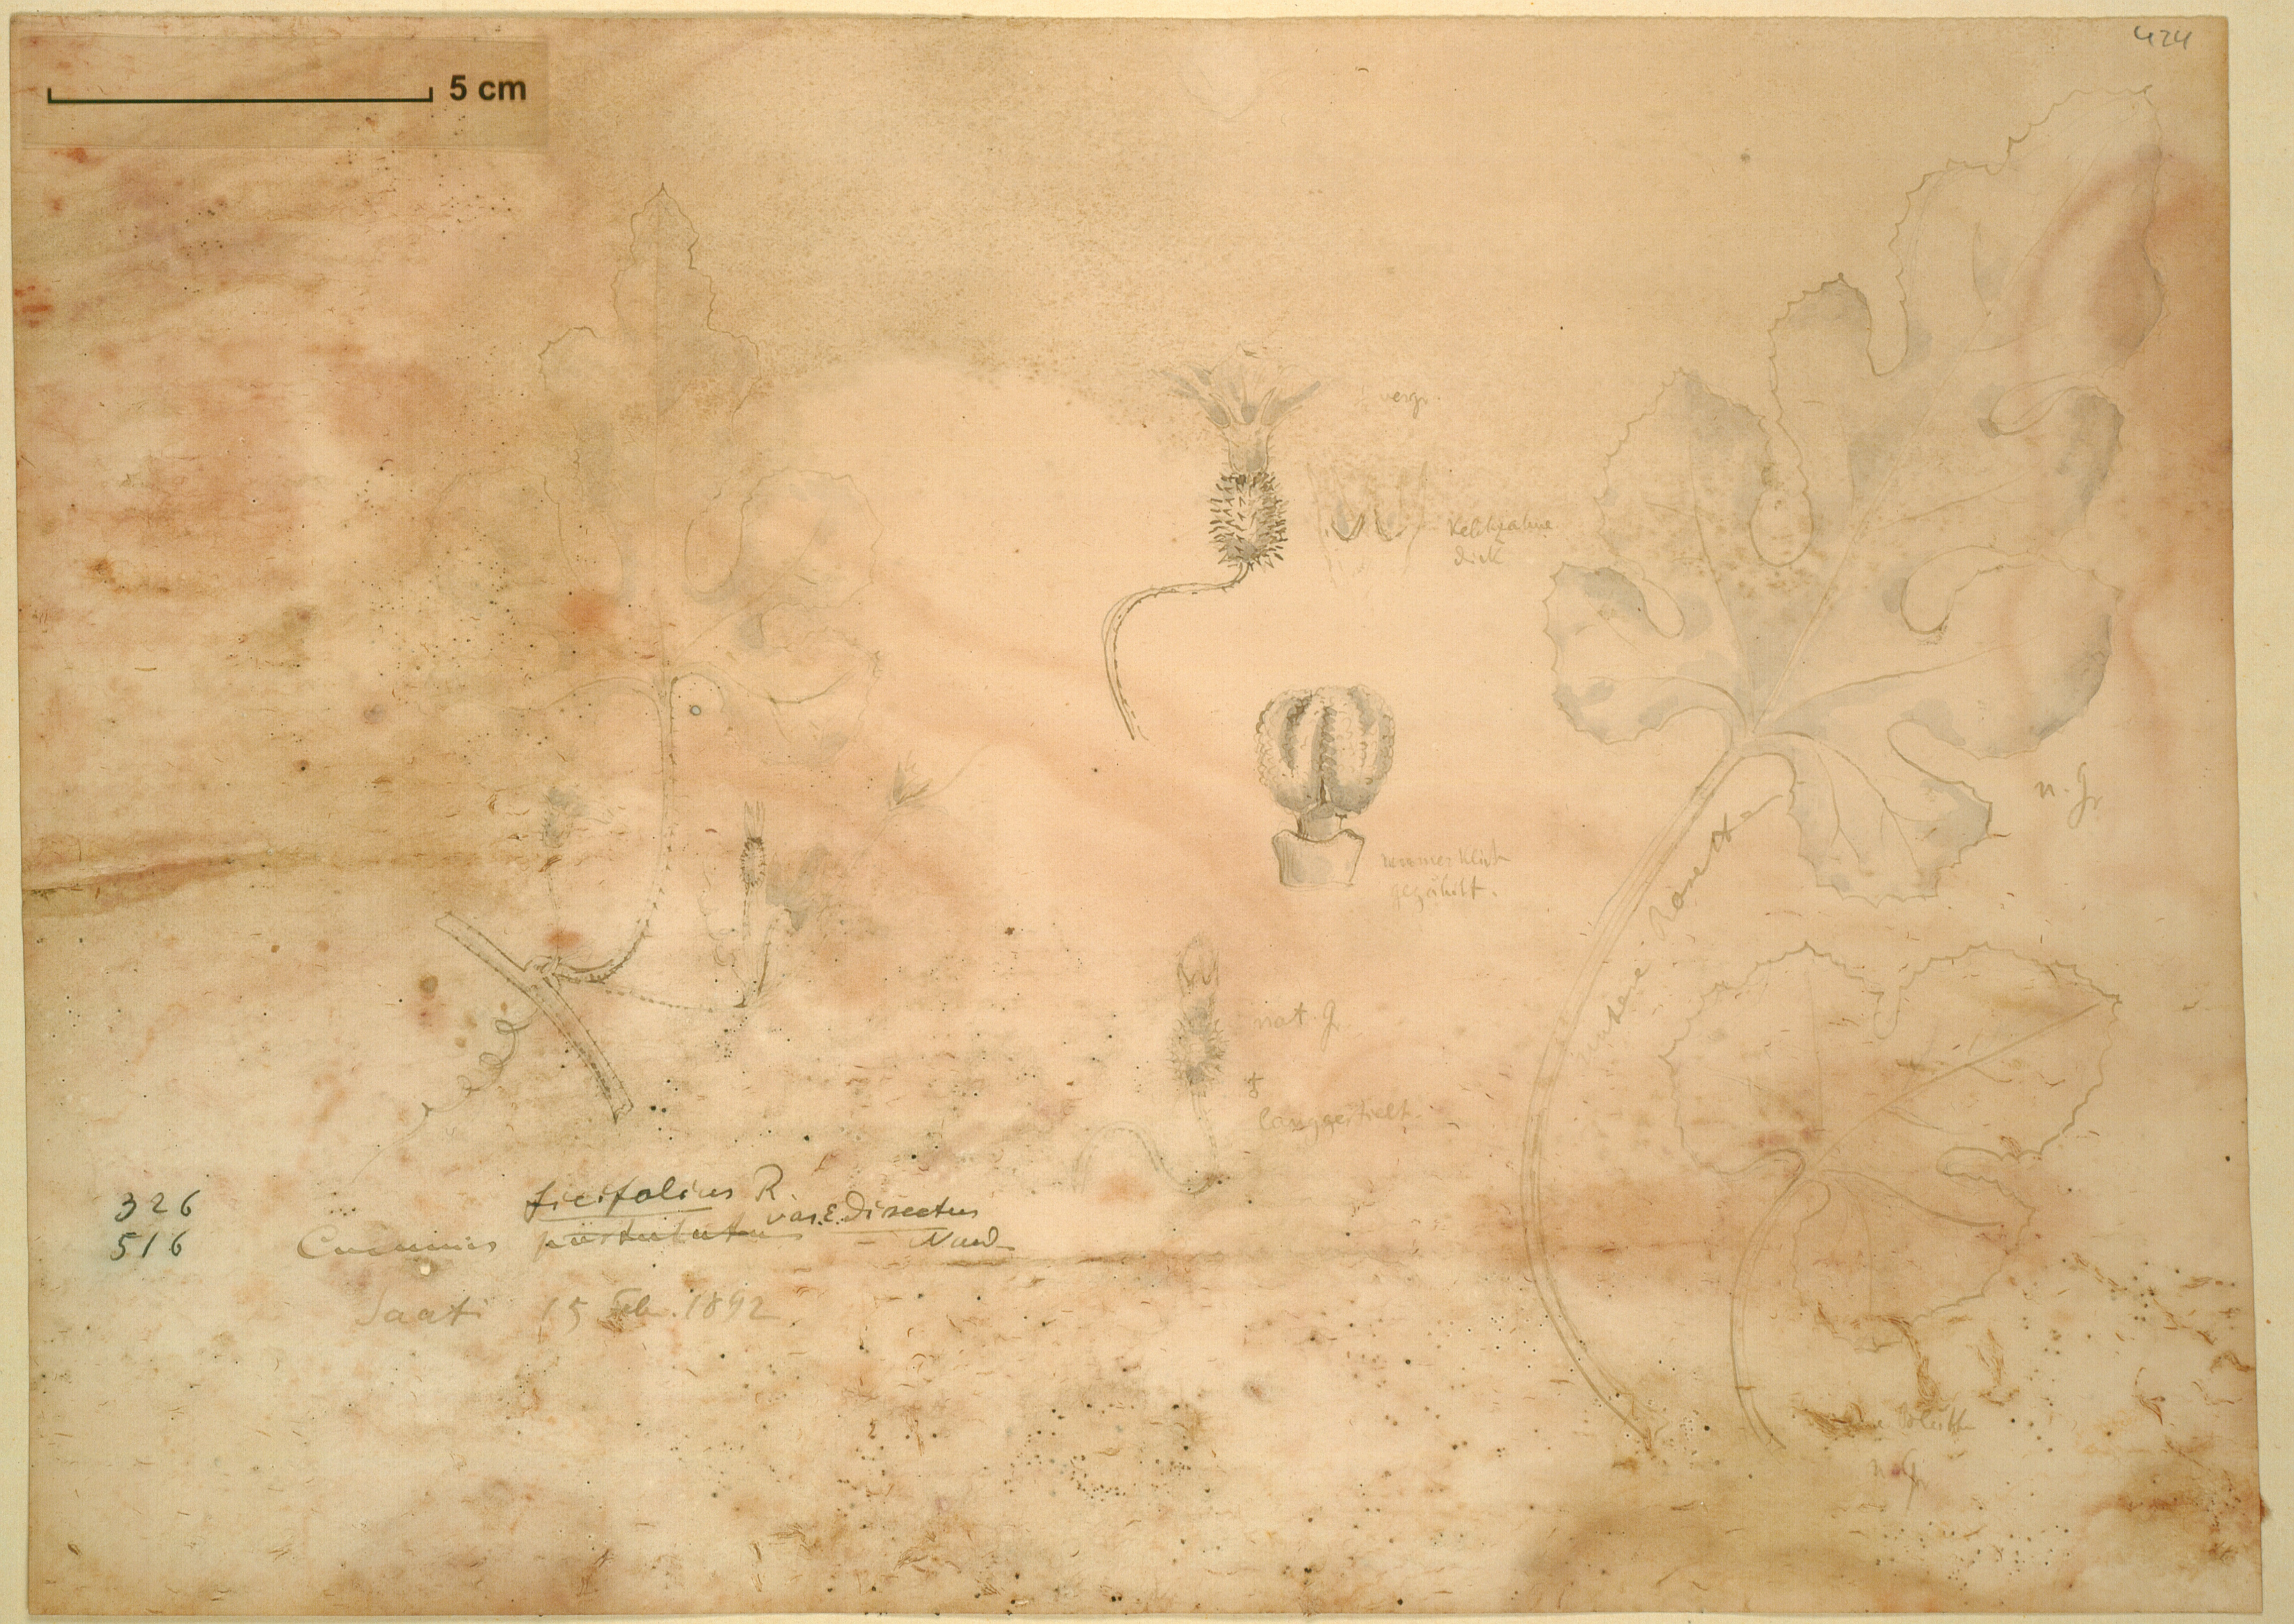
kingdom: Plantae
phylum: Tracheophyta
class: Magnoliopsida
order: Cucurbitales
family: Cucurbitaceae
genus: Cucumis
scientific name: Cucumis ficifolius
